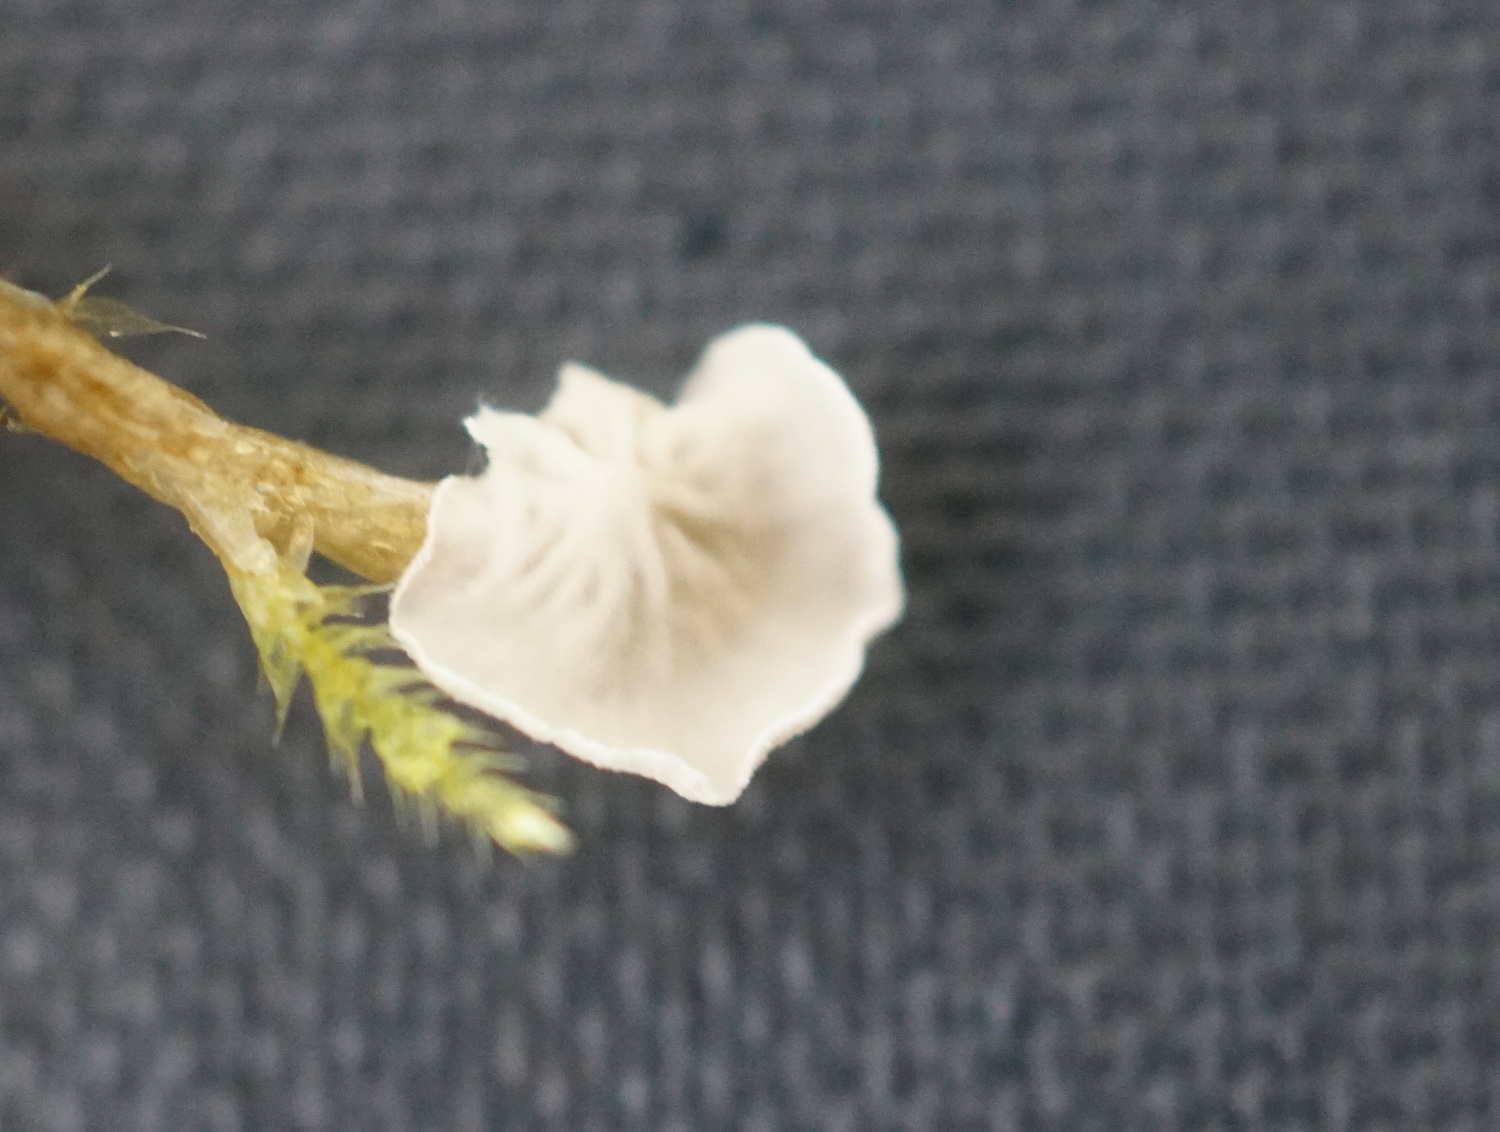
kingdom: Fungi
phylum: Basidiomycota
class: Agaricomycetes
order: Agaricales
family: Hygrophoraceae
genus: Arrhenia
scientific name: Arrhenia retiruga
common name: lille fontænehat
